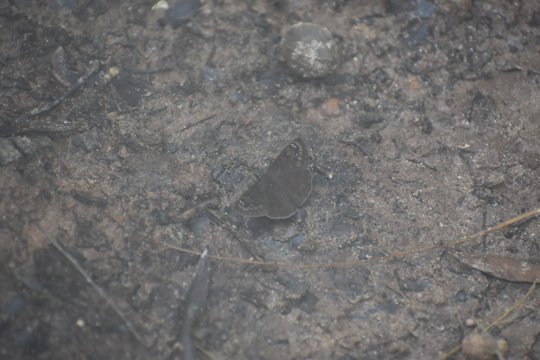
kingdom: Animalia
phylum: Arthropoda
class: Insecta
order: Lepidoptera
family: Hesperiidae
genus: Gesta
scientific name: Gesta
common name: Horace's Duskywing
